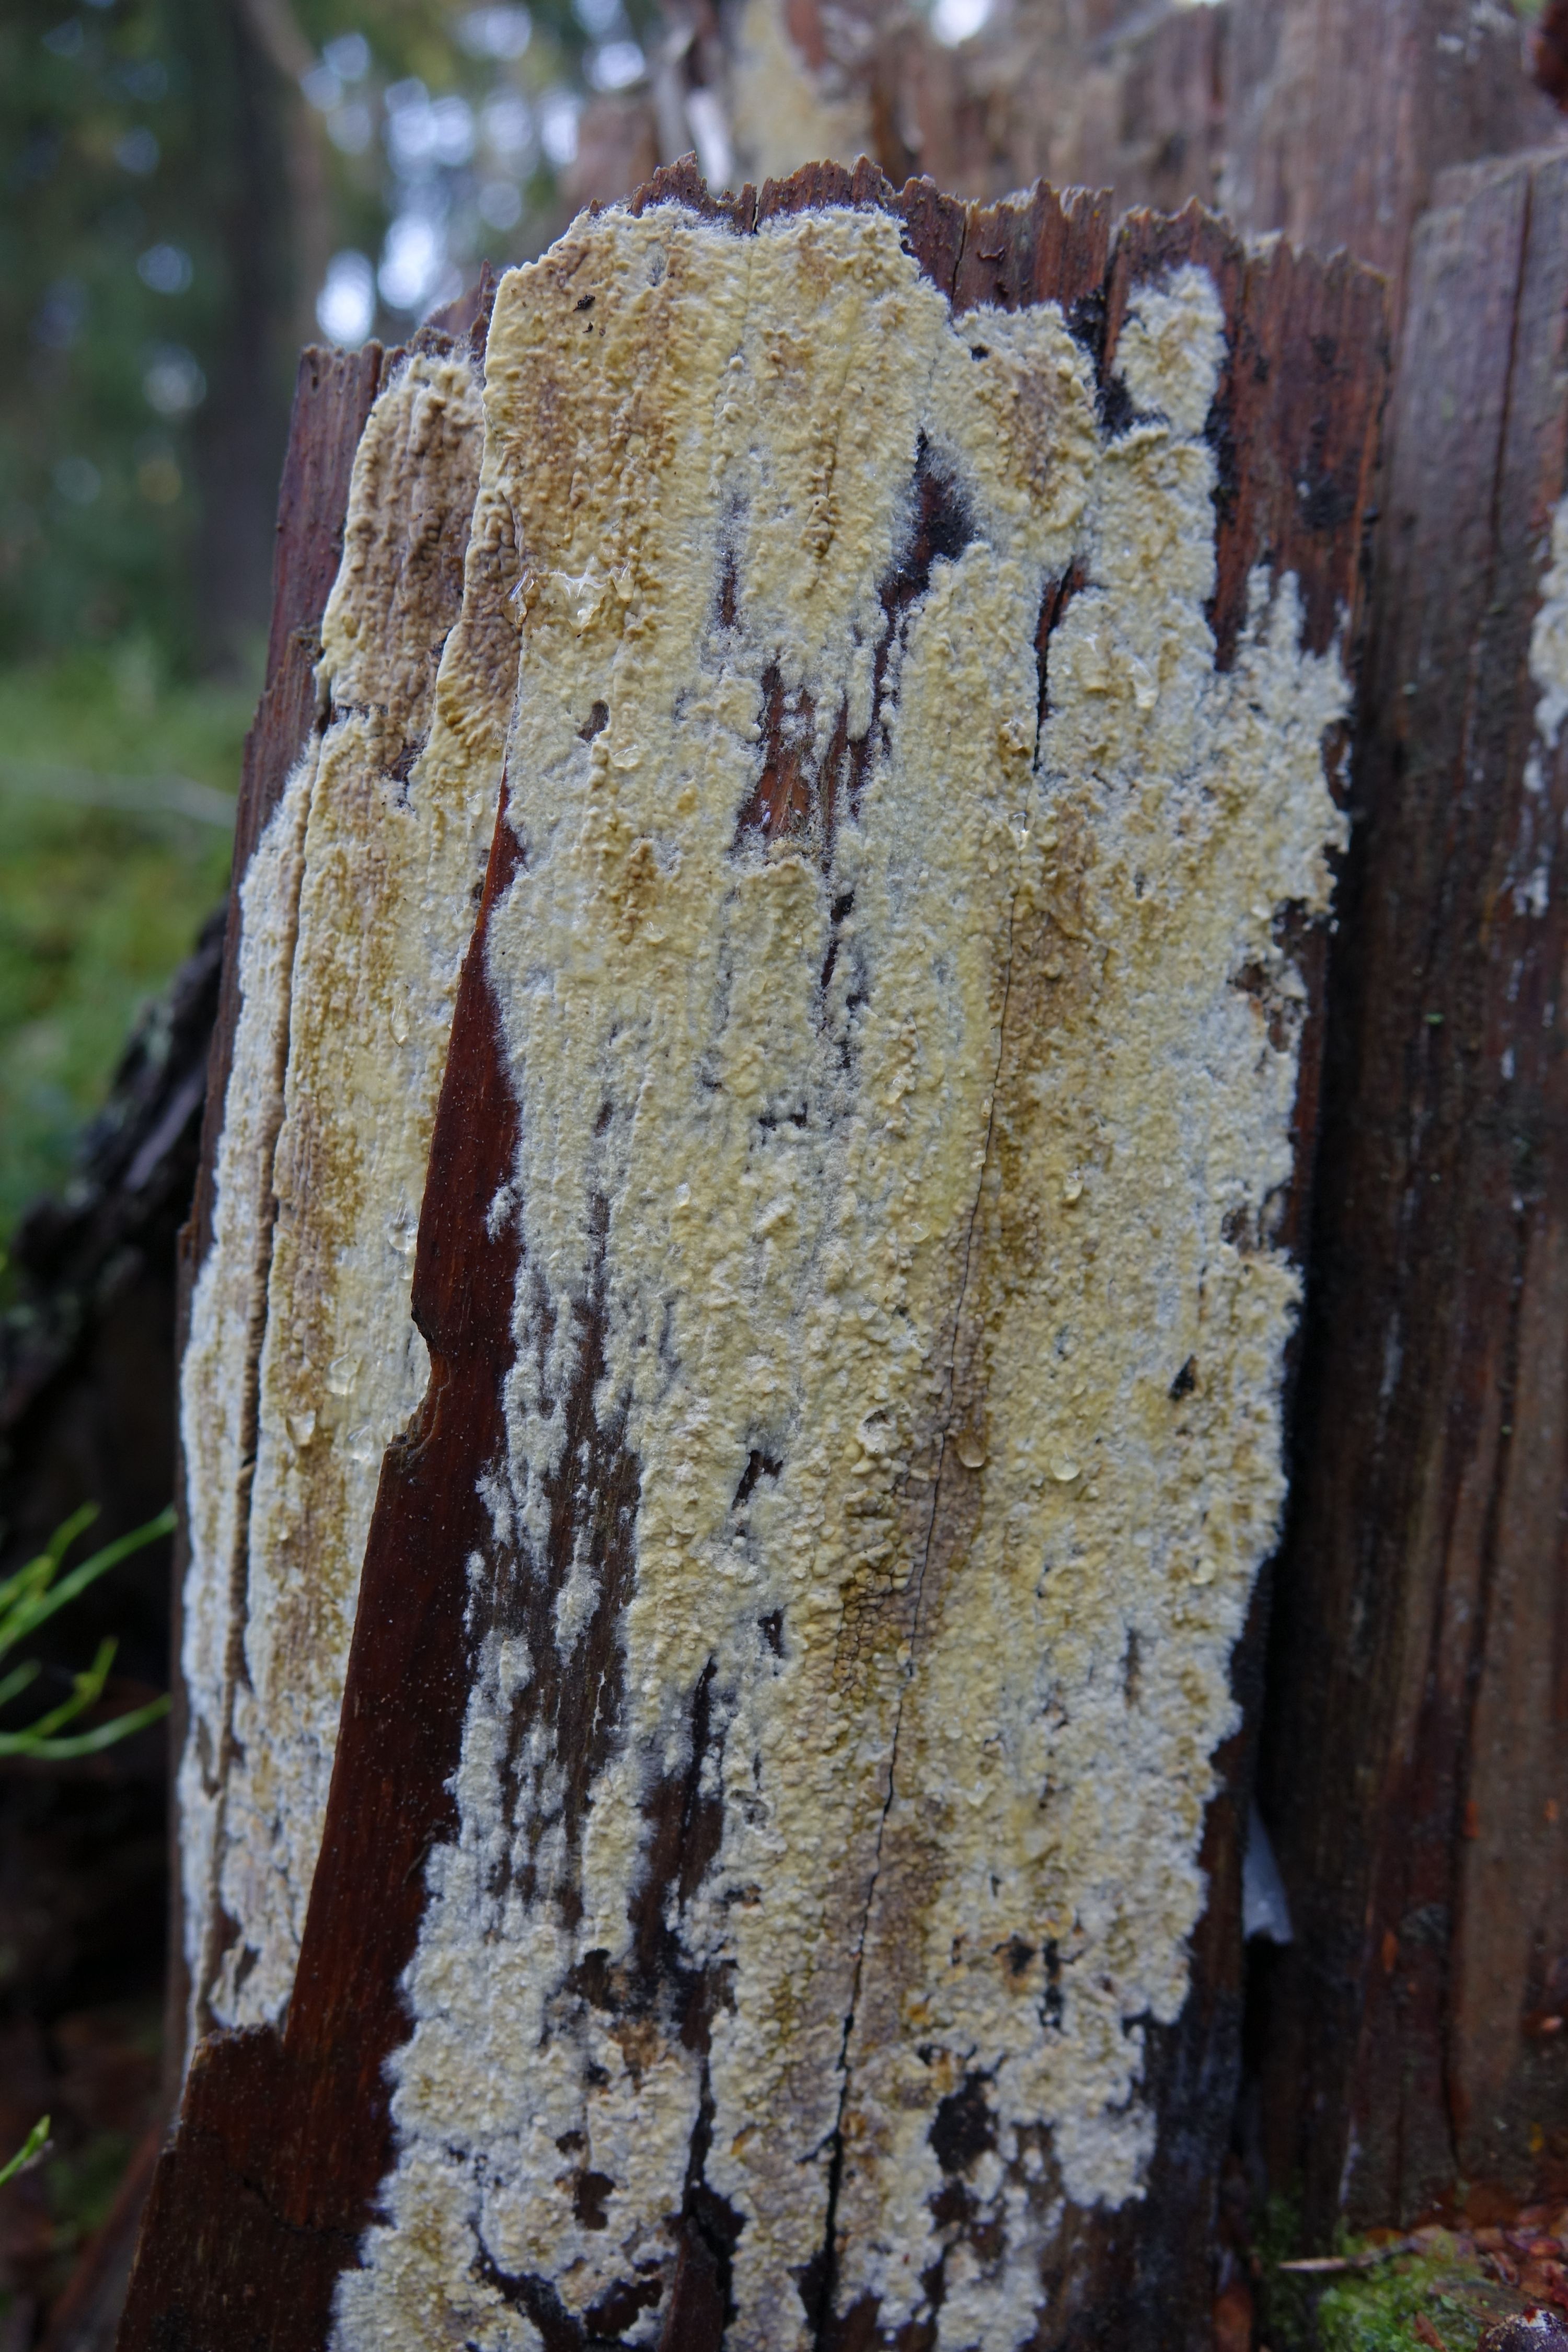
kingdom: Fungi
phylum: Basidiomycota
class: Agaricomycetes
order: Boletales
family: Coniophoraceae
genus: Coniophora
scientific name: Coniophora arida
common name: Dry duster
